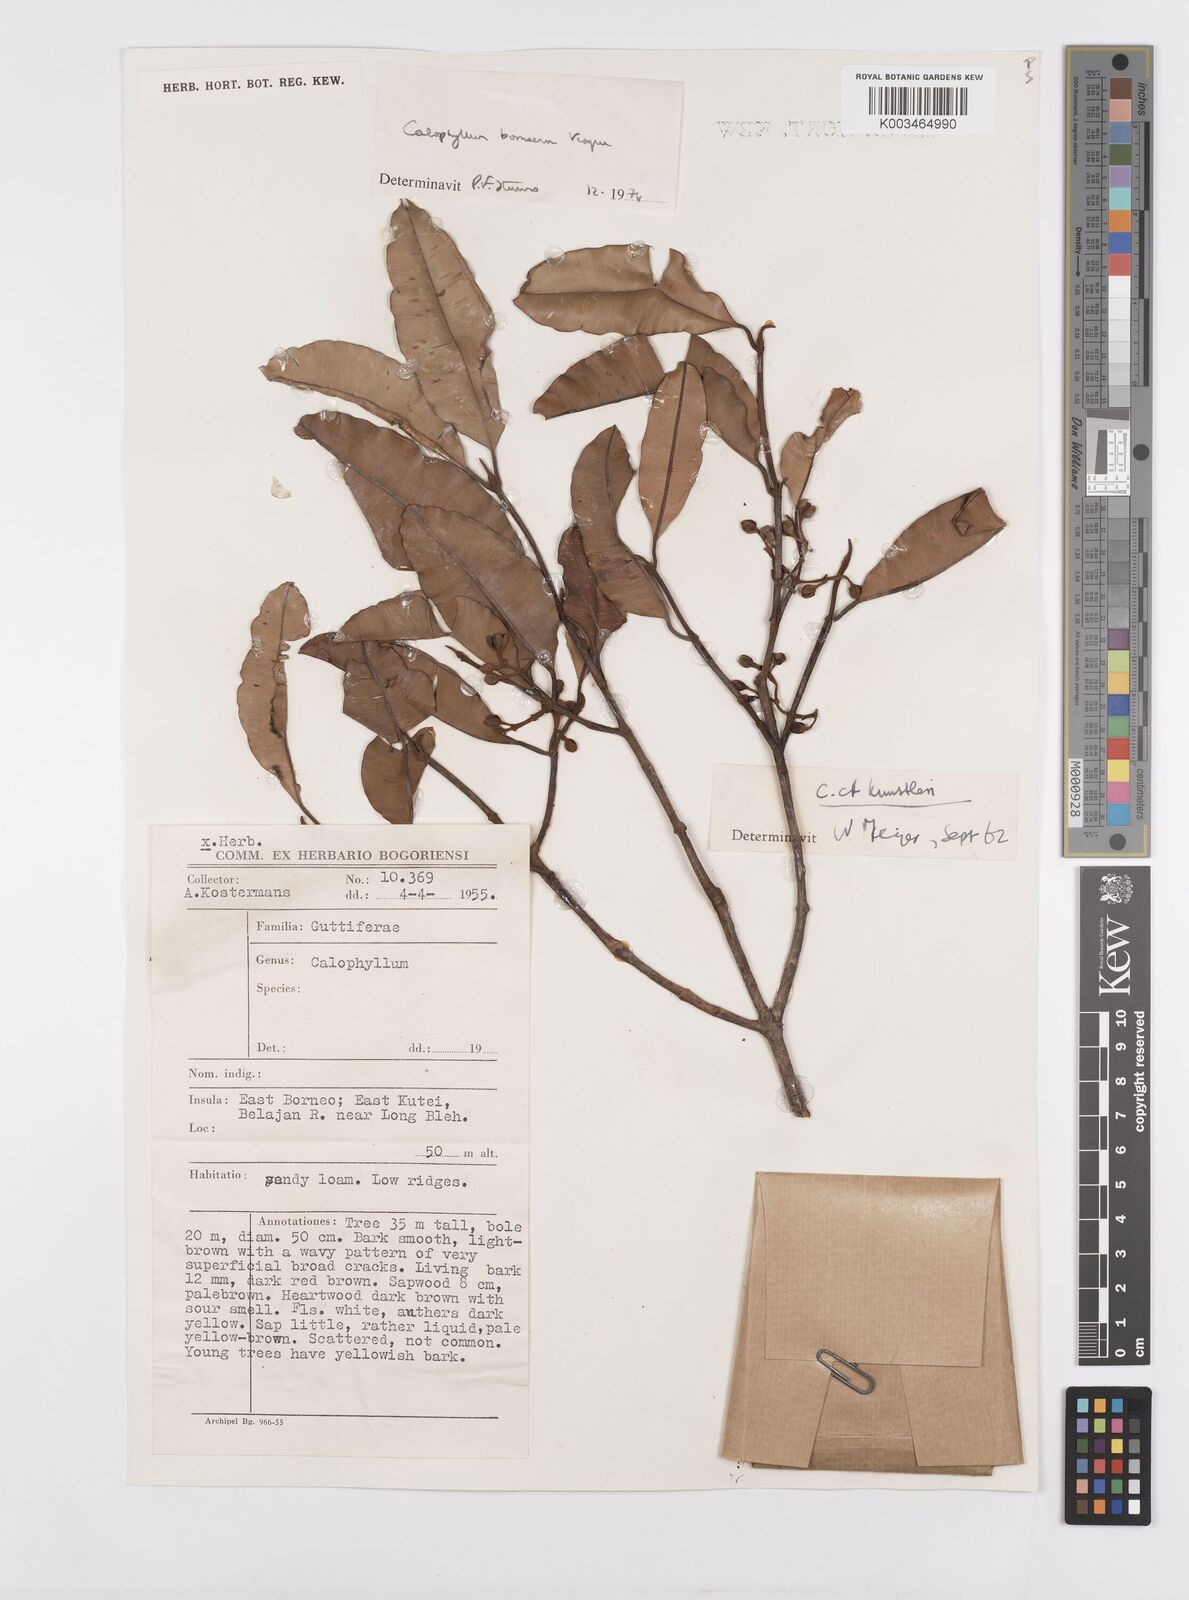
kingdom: Plantae
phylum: Tracheophyta
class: Magnoliopsida
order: Malpighiales
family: Calophyllaceae
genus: Calophyllum
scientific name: Calophyllum canum
